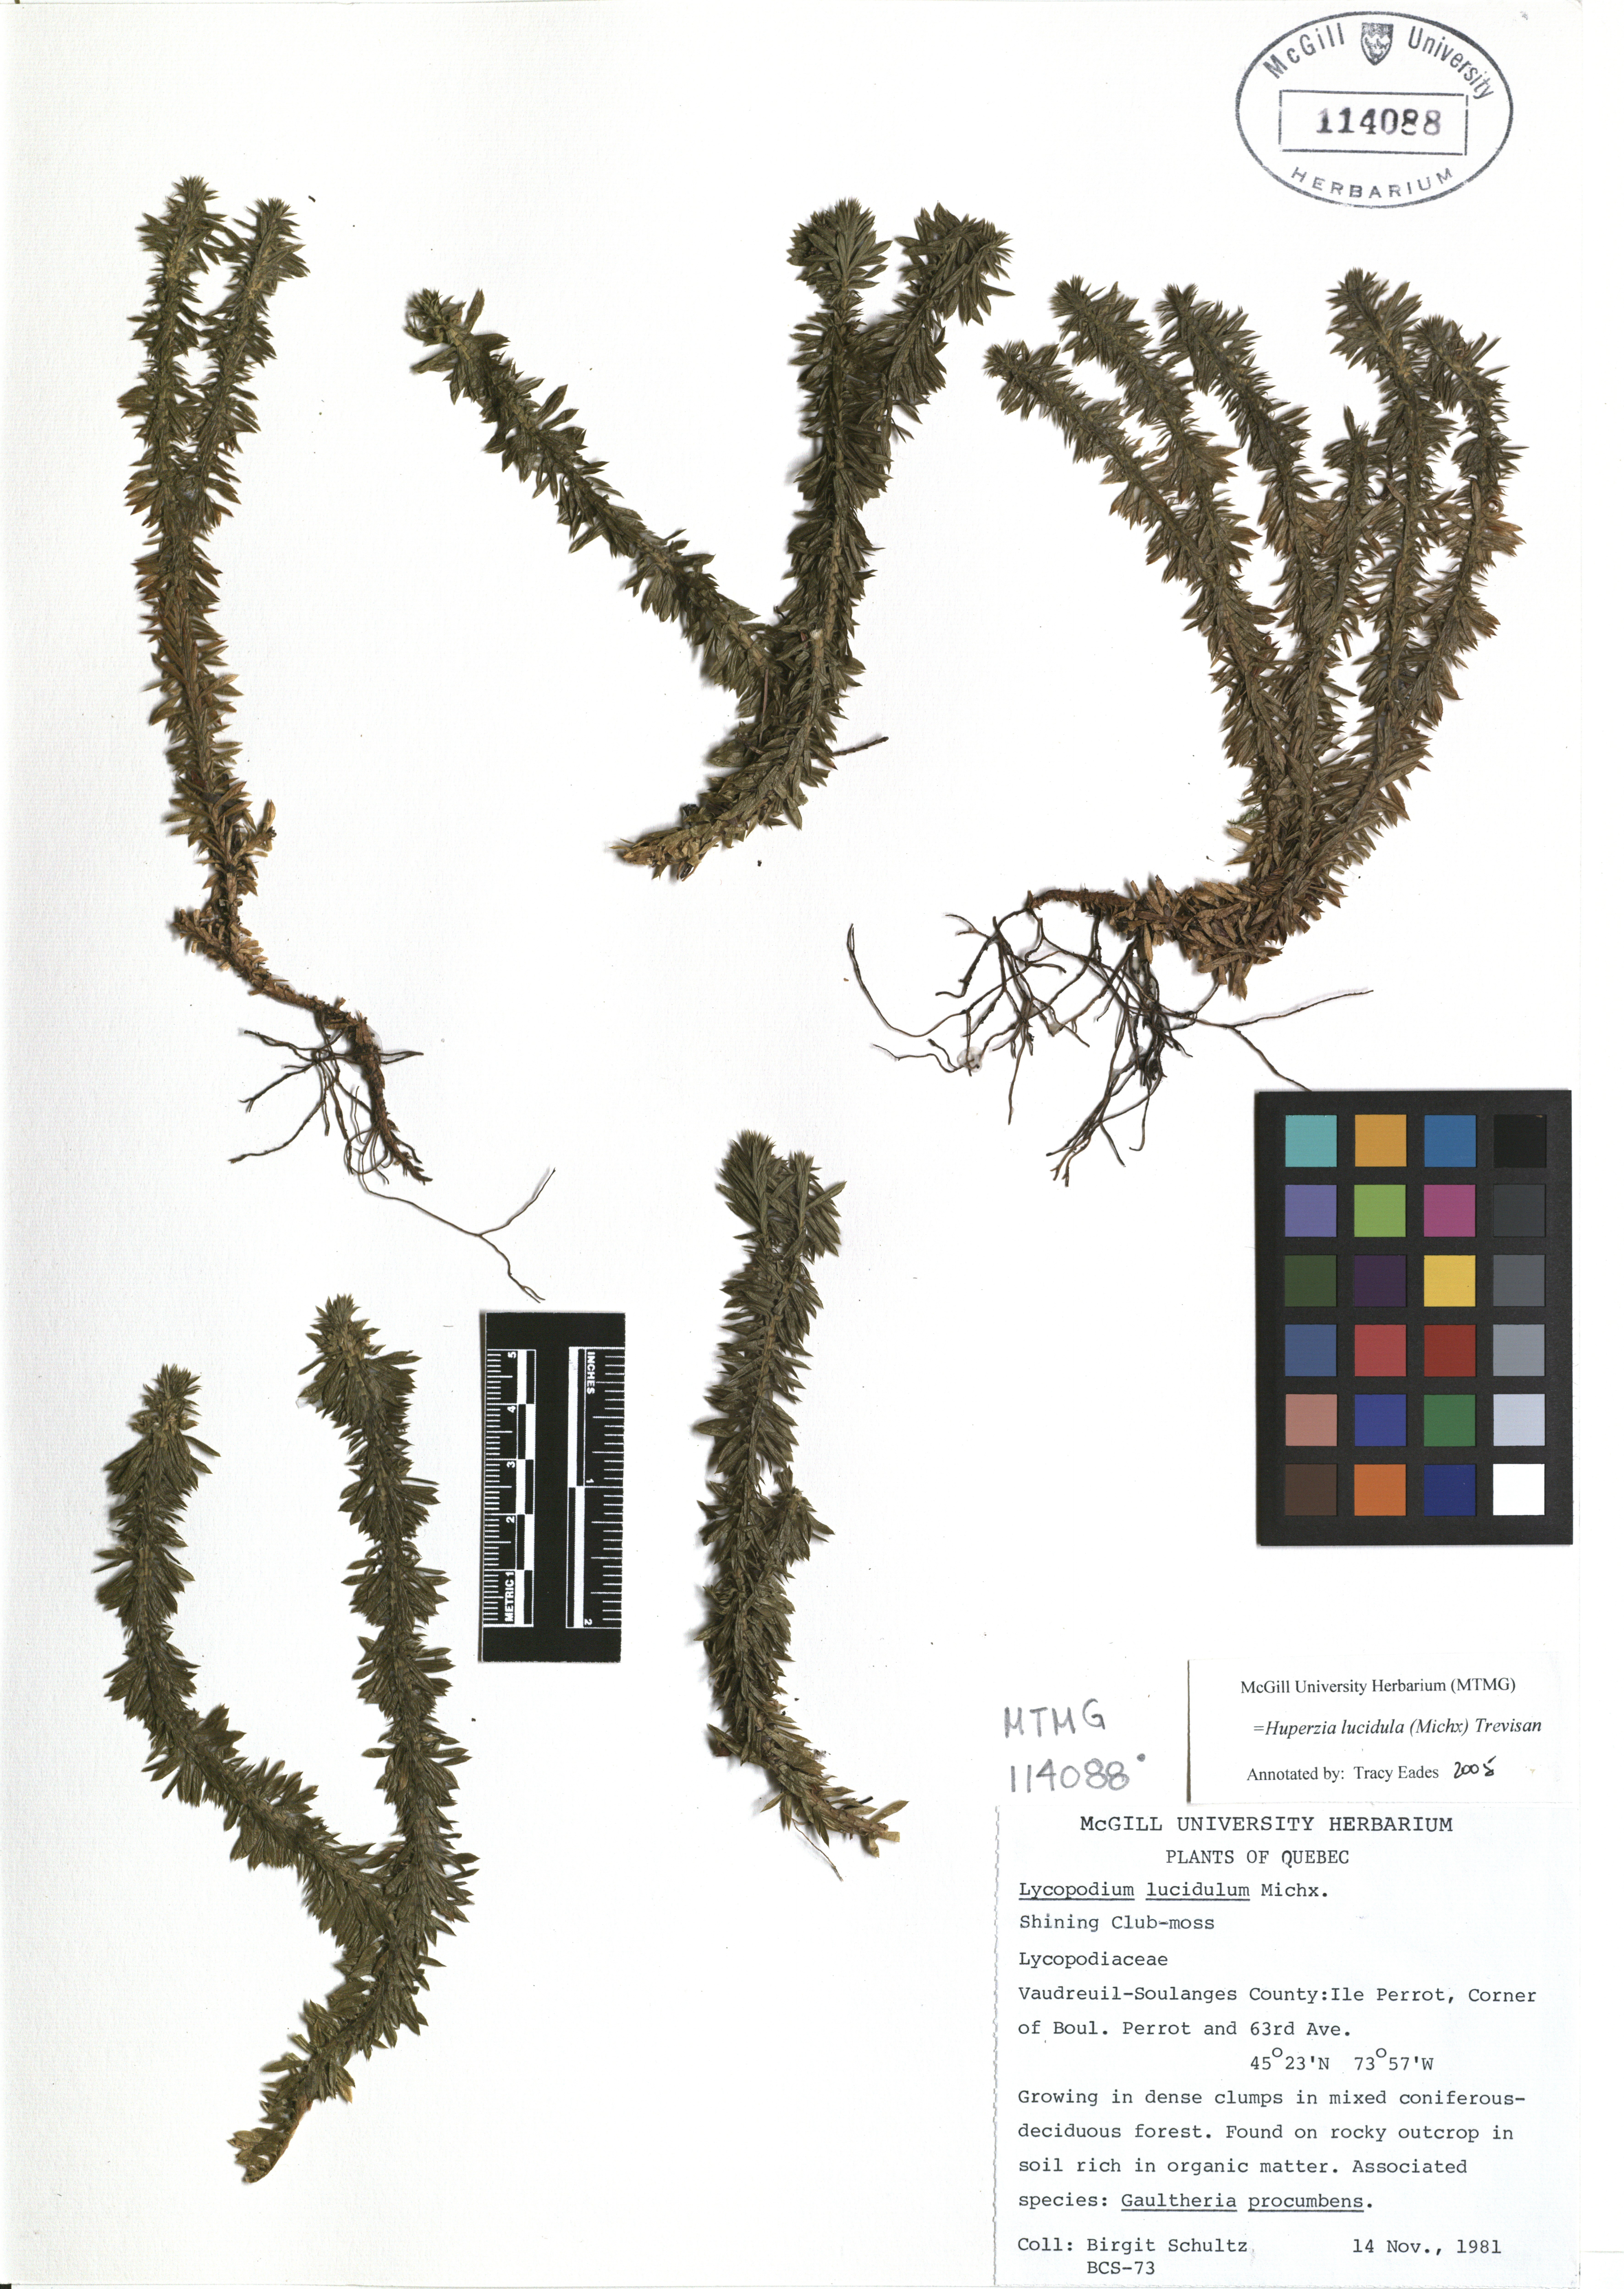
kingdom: Plantae
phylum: Tracheophyta
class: Lycopodiopsida
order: Lycopodiales
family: Lycopodiaceae
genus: Huperzia
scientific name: Huperzia lucidula
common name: Shining clubmoss
